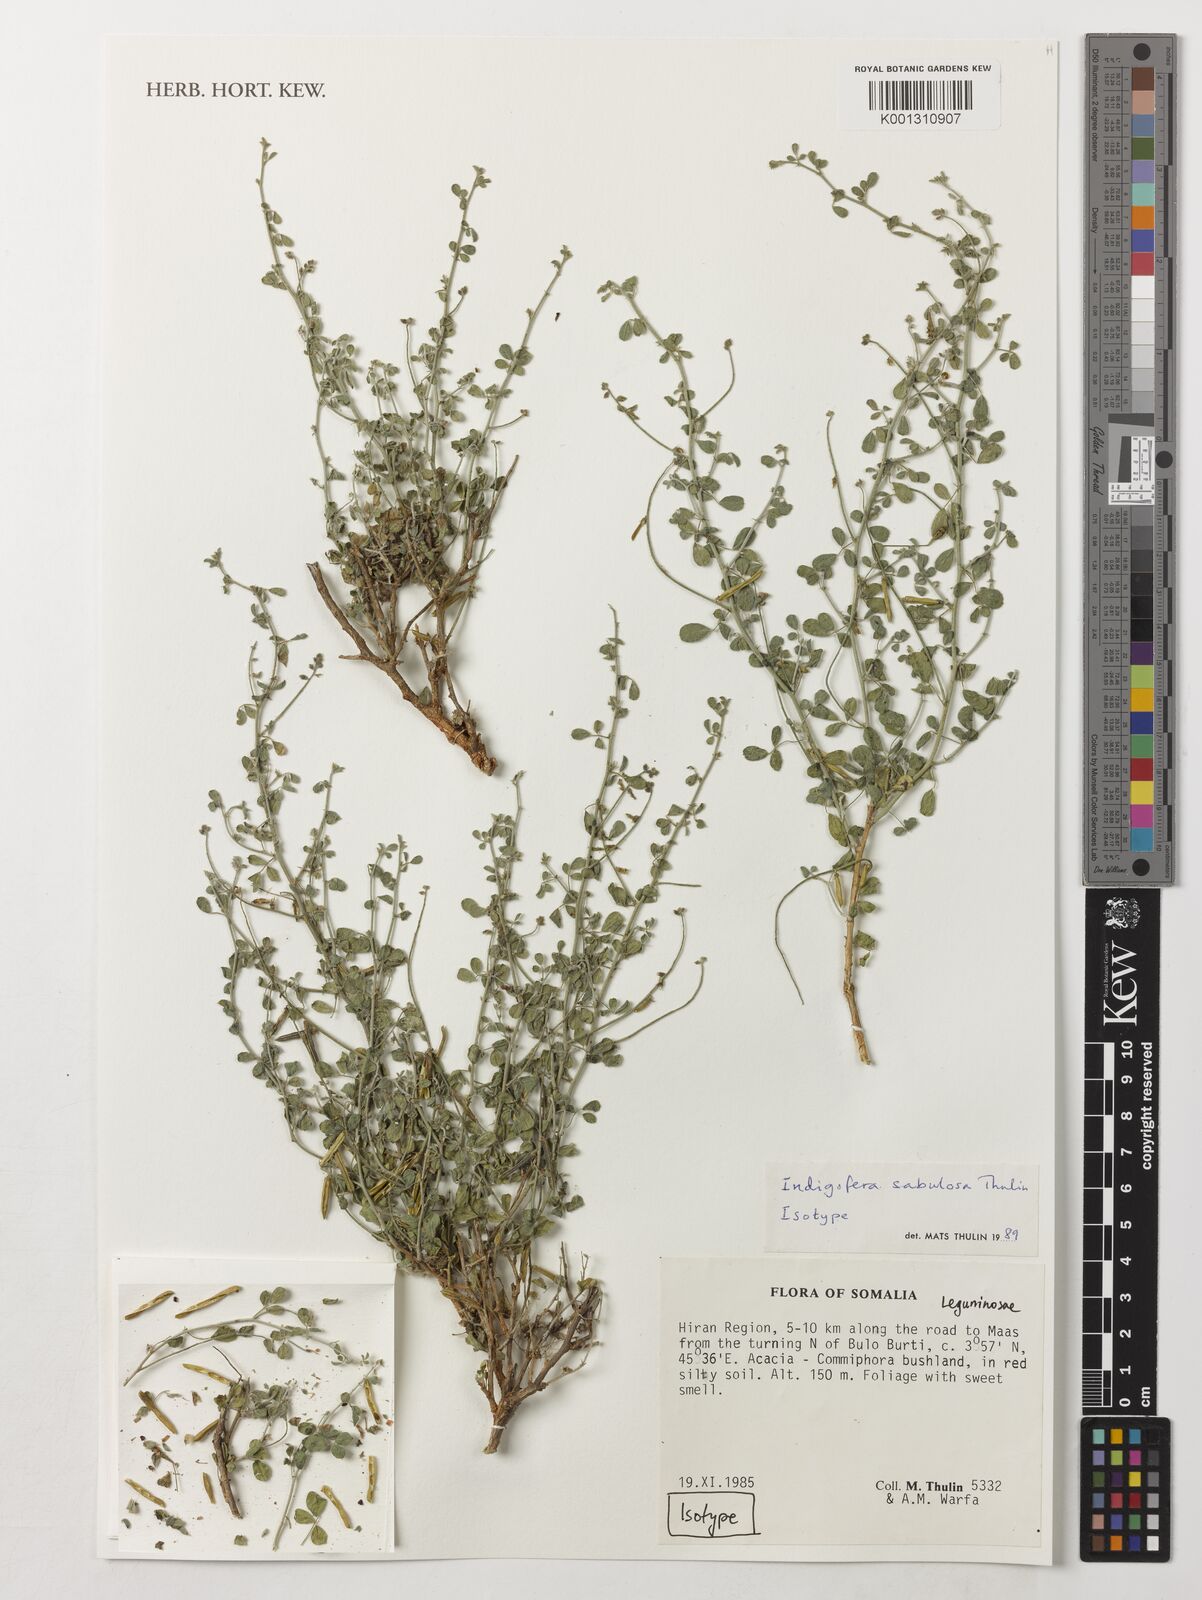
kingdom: Plantae
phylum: Tracheophyta
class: Magnoliopsida
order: Fabales
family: Fabaceae
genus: Indigofera
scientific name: Indigofera sabulosa
